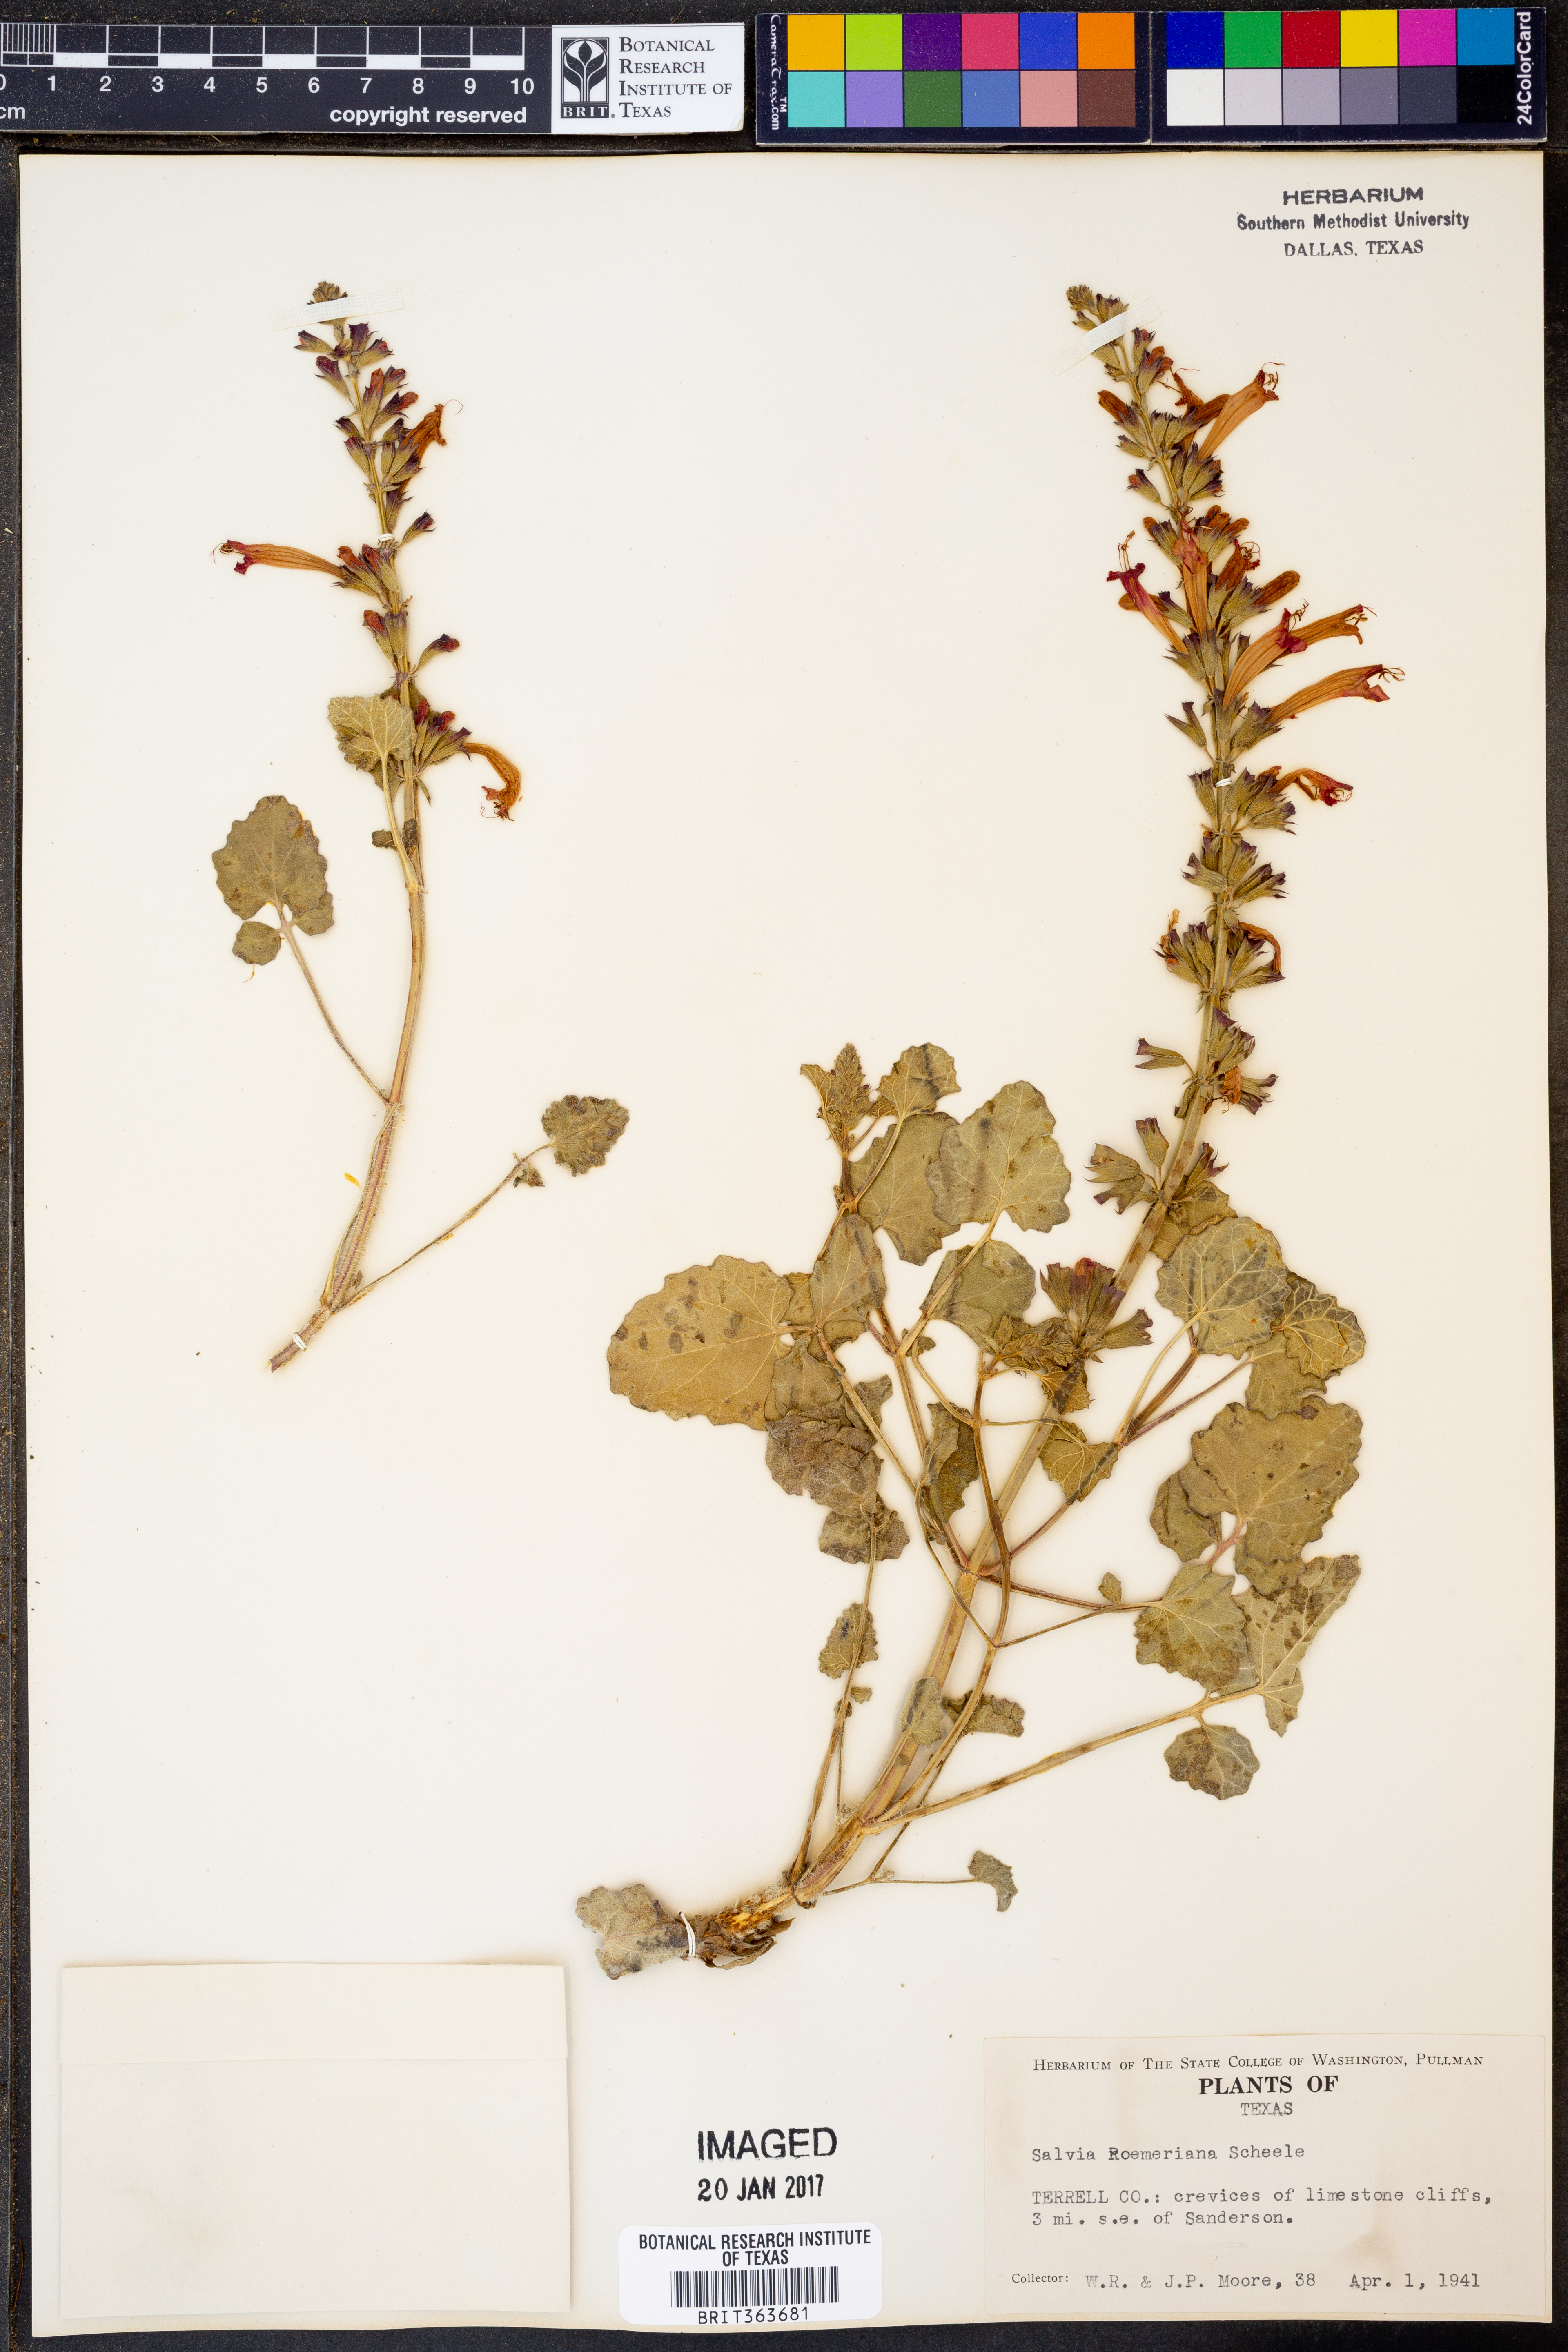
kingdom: Plantae
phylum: Tracheophyta
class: Magnoliopsida
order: Lamiales
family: Lamiaceae
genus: Salvia
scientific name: Salvia roemeriana
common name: Cedar sage
